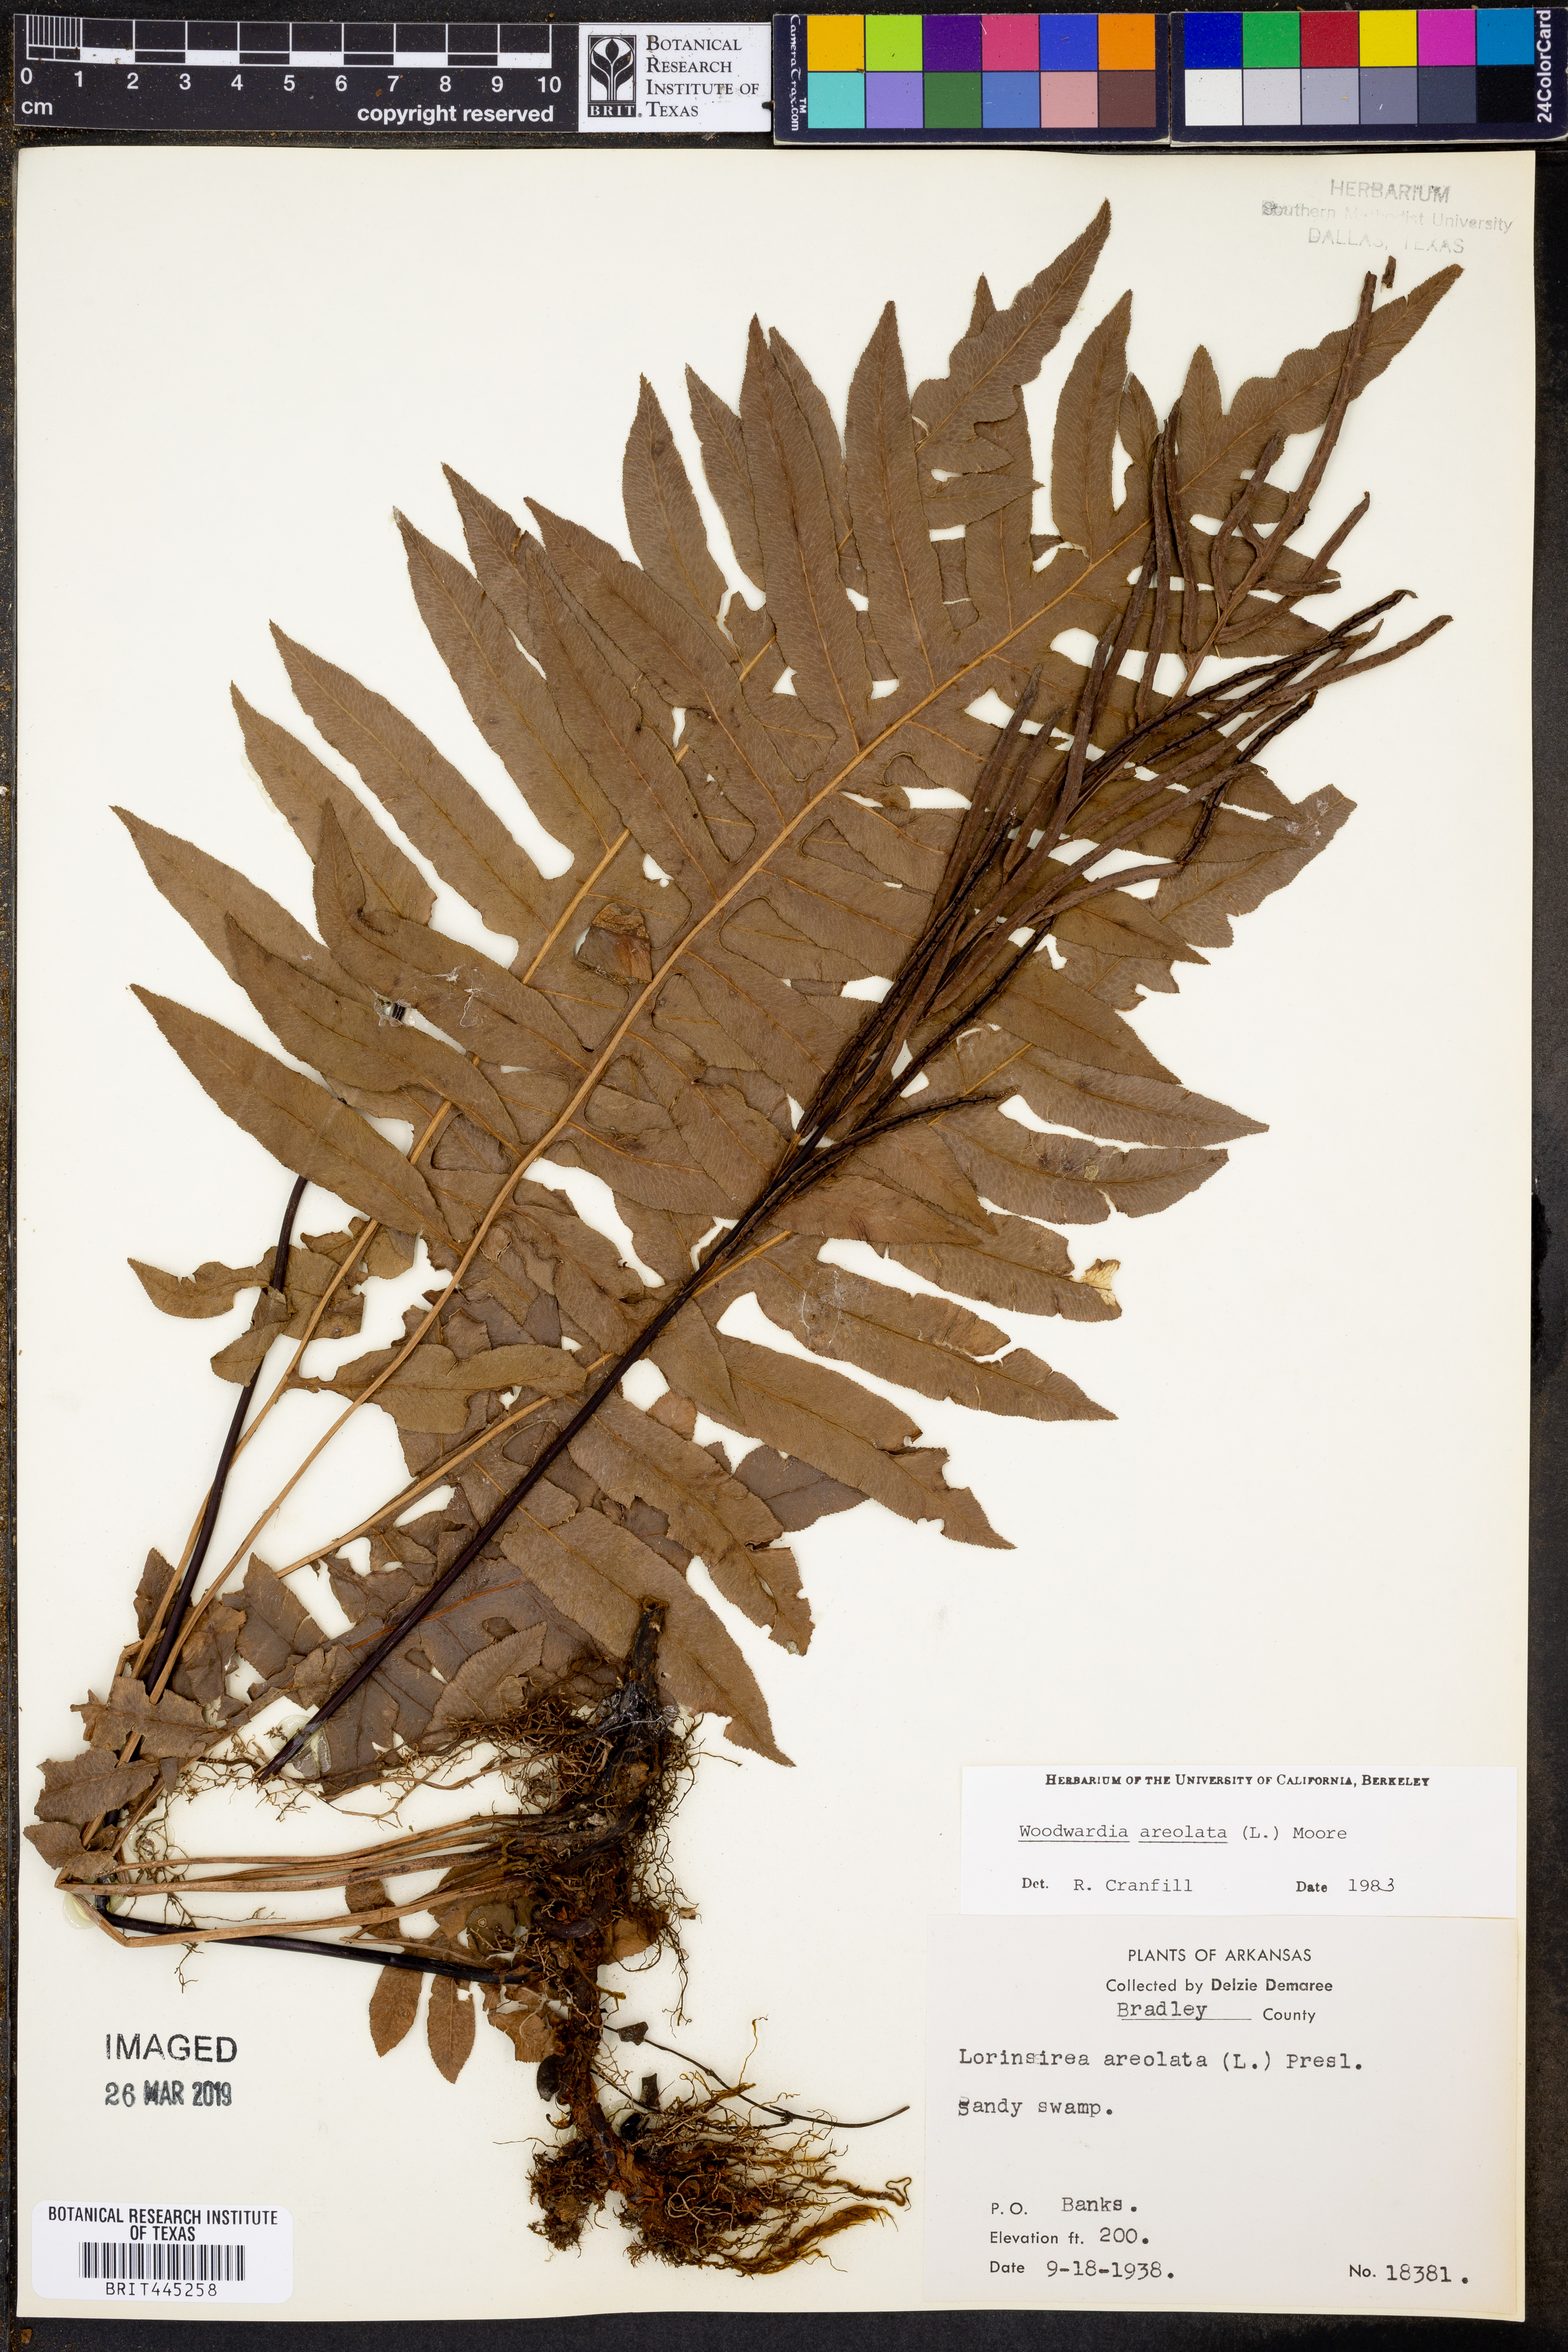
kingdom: Plantae
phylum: Tracheophyta
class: Polypodiopsida
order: Polypodiales
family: Blechnaceae
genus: Lorinseria
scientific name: Lorinseria areolata
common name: Dwarf chain fern
